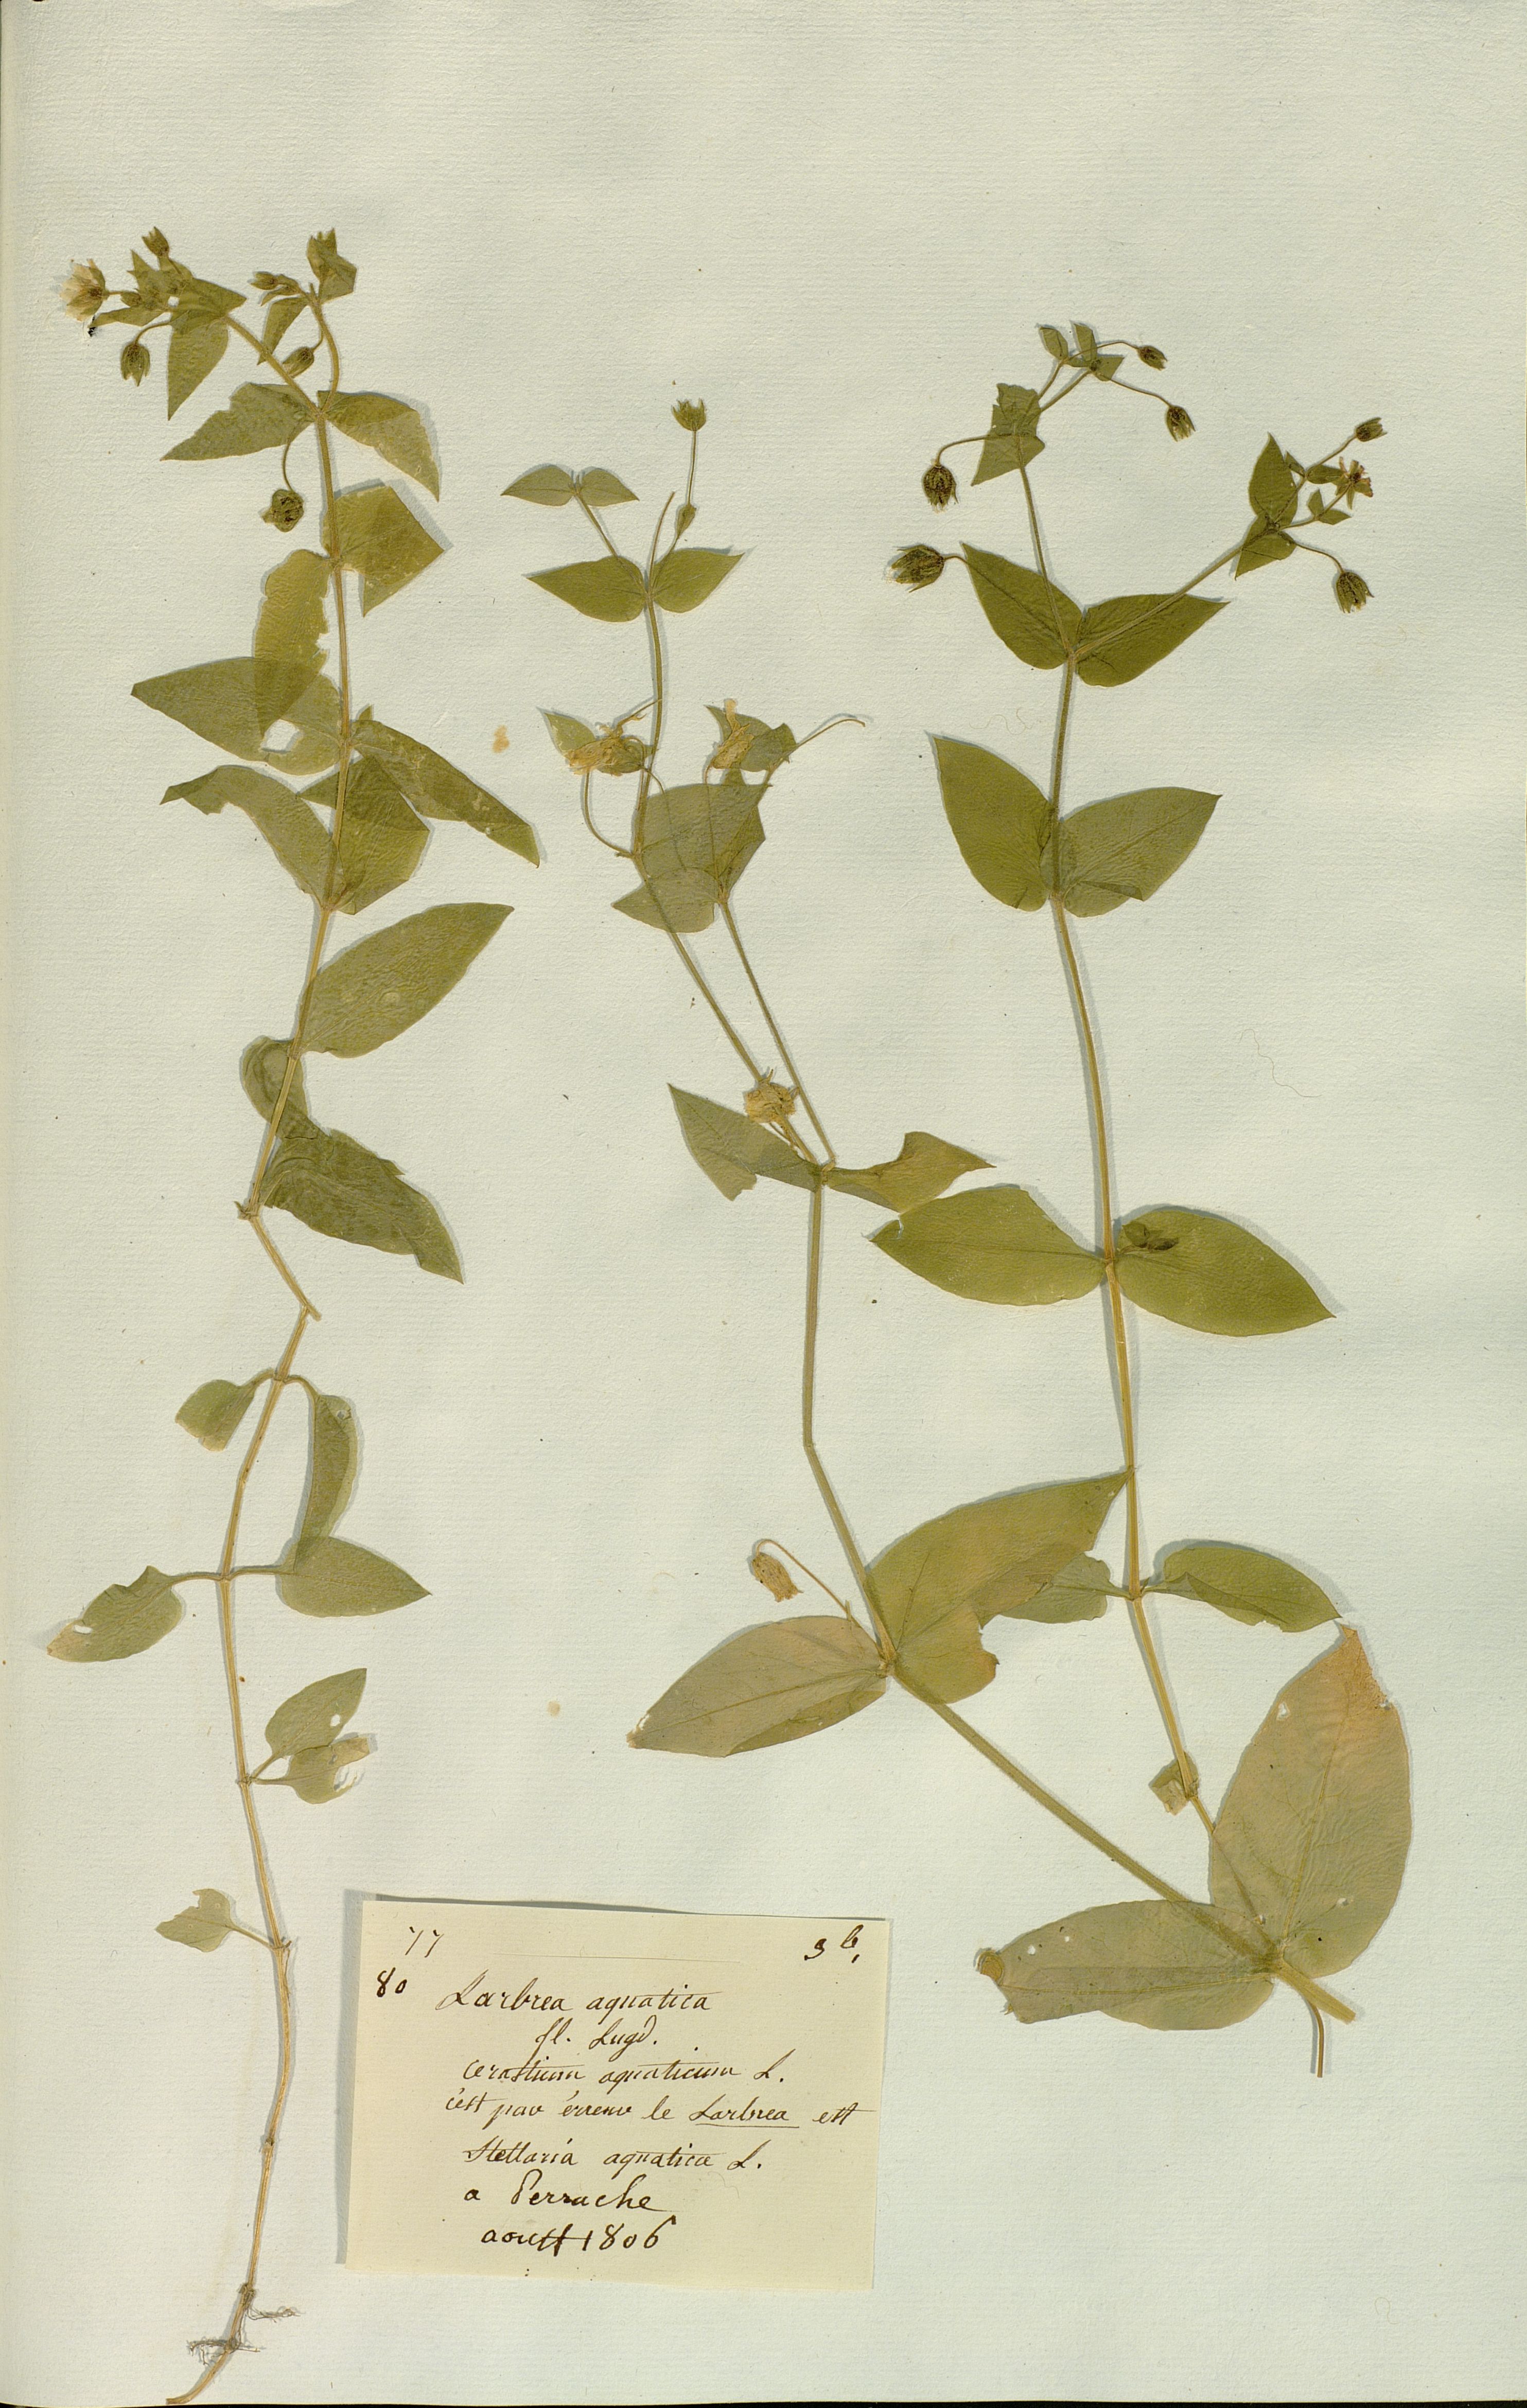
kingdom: Plantae
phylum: Tracheophyta
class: Magnoliopsida
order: Caryophyllales
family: Caryophyllaceae
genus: Stellaria
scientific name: Stellaria aquatica
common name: Water chickweed
